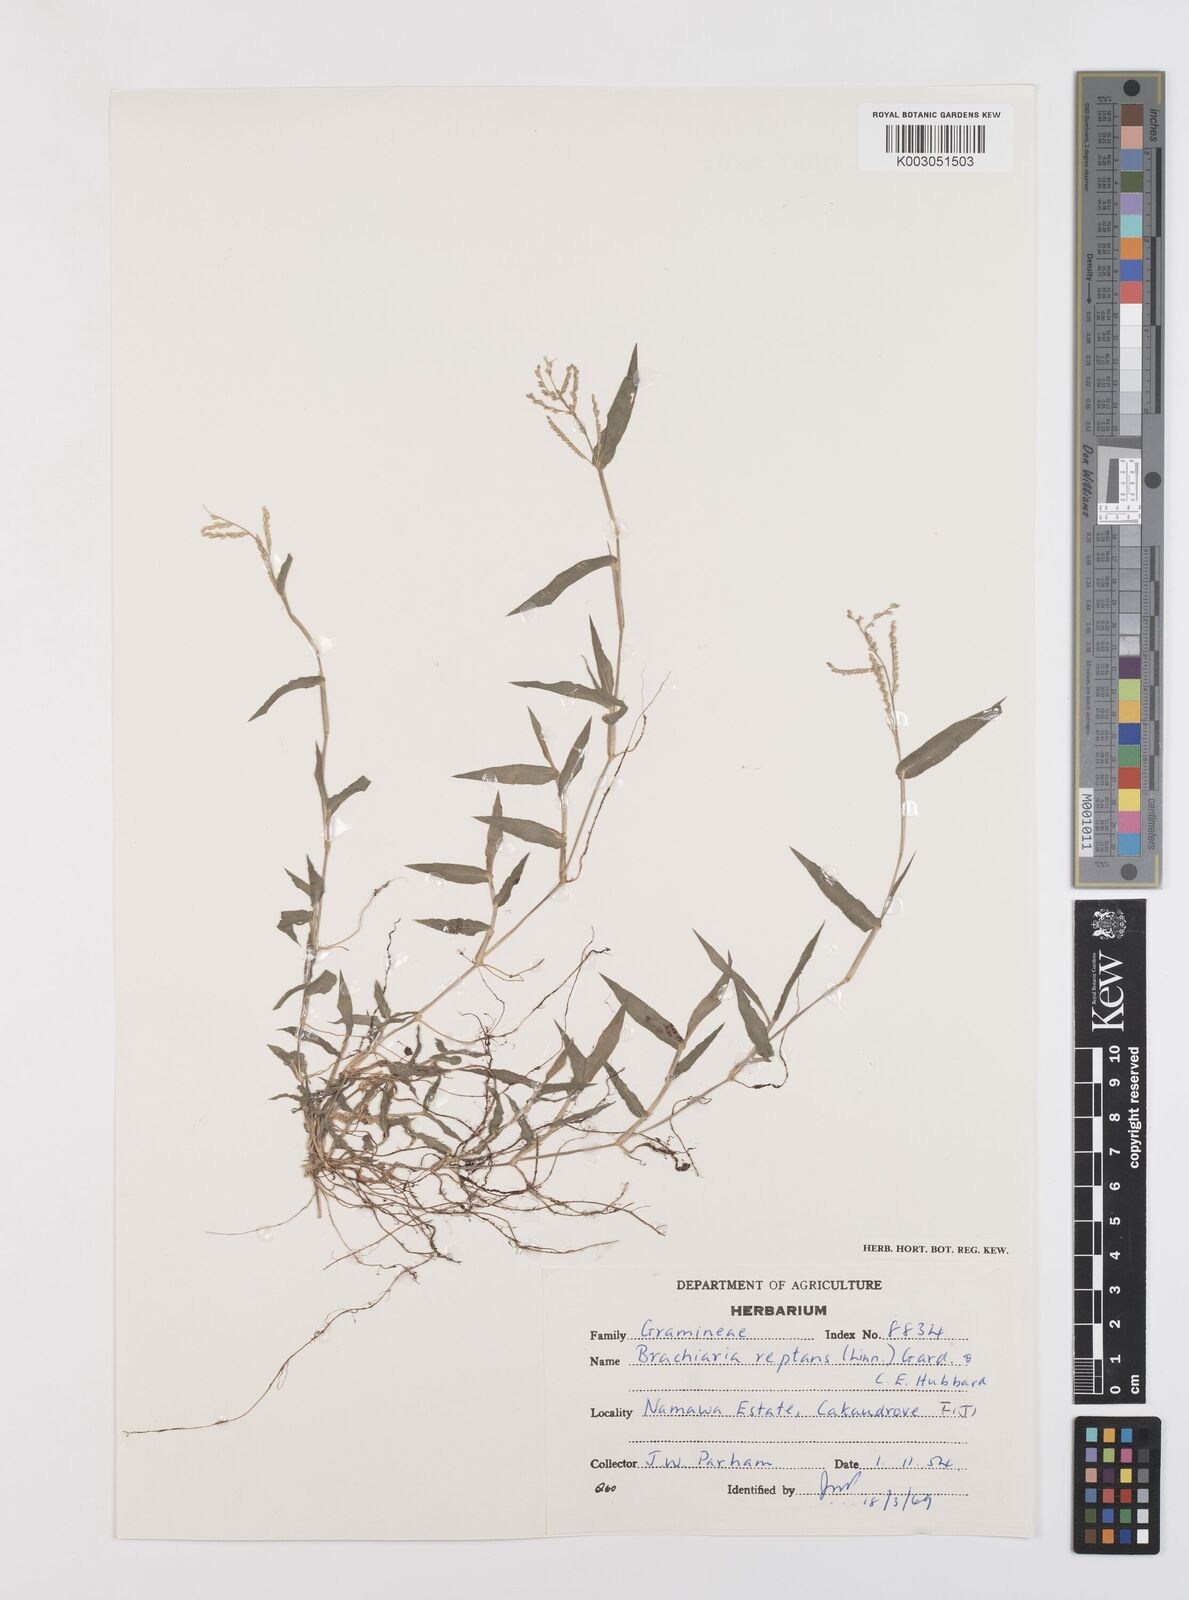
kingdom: Plantae
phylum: Tracheophyta
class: Liliopsida
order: Poales
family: Poaceae
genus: Urochloa
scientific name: Urochloa reptans
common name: Sprawling signalgrass
